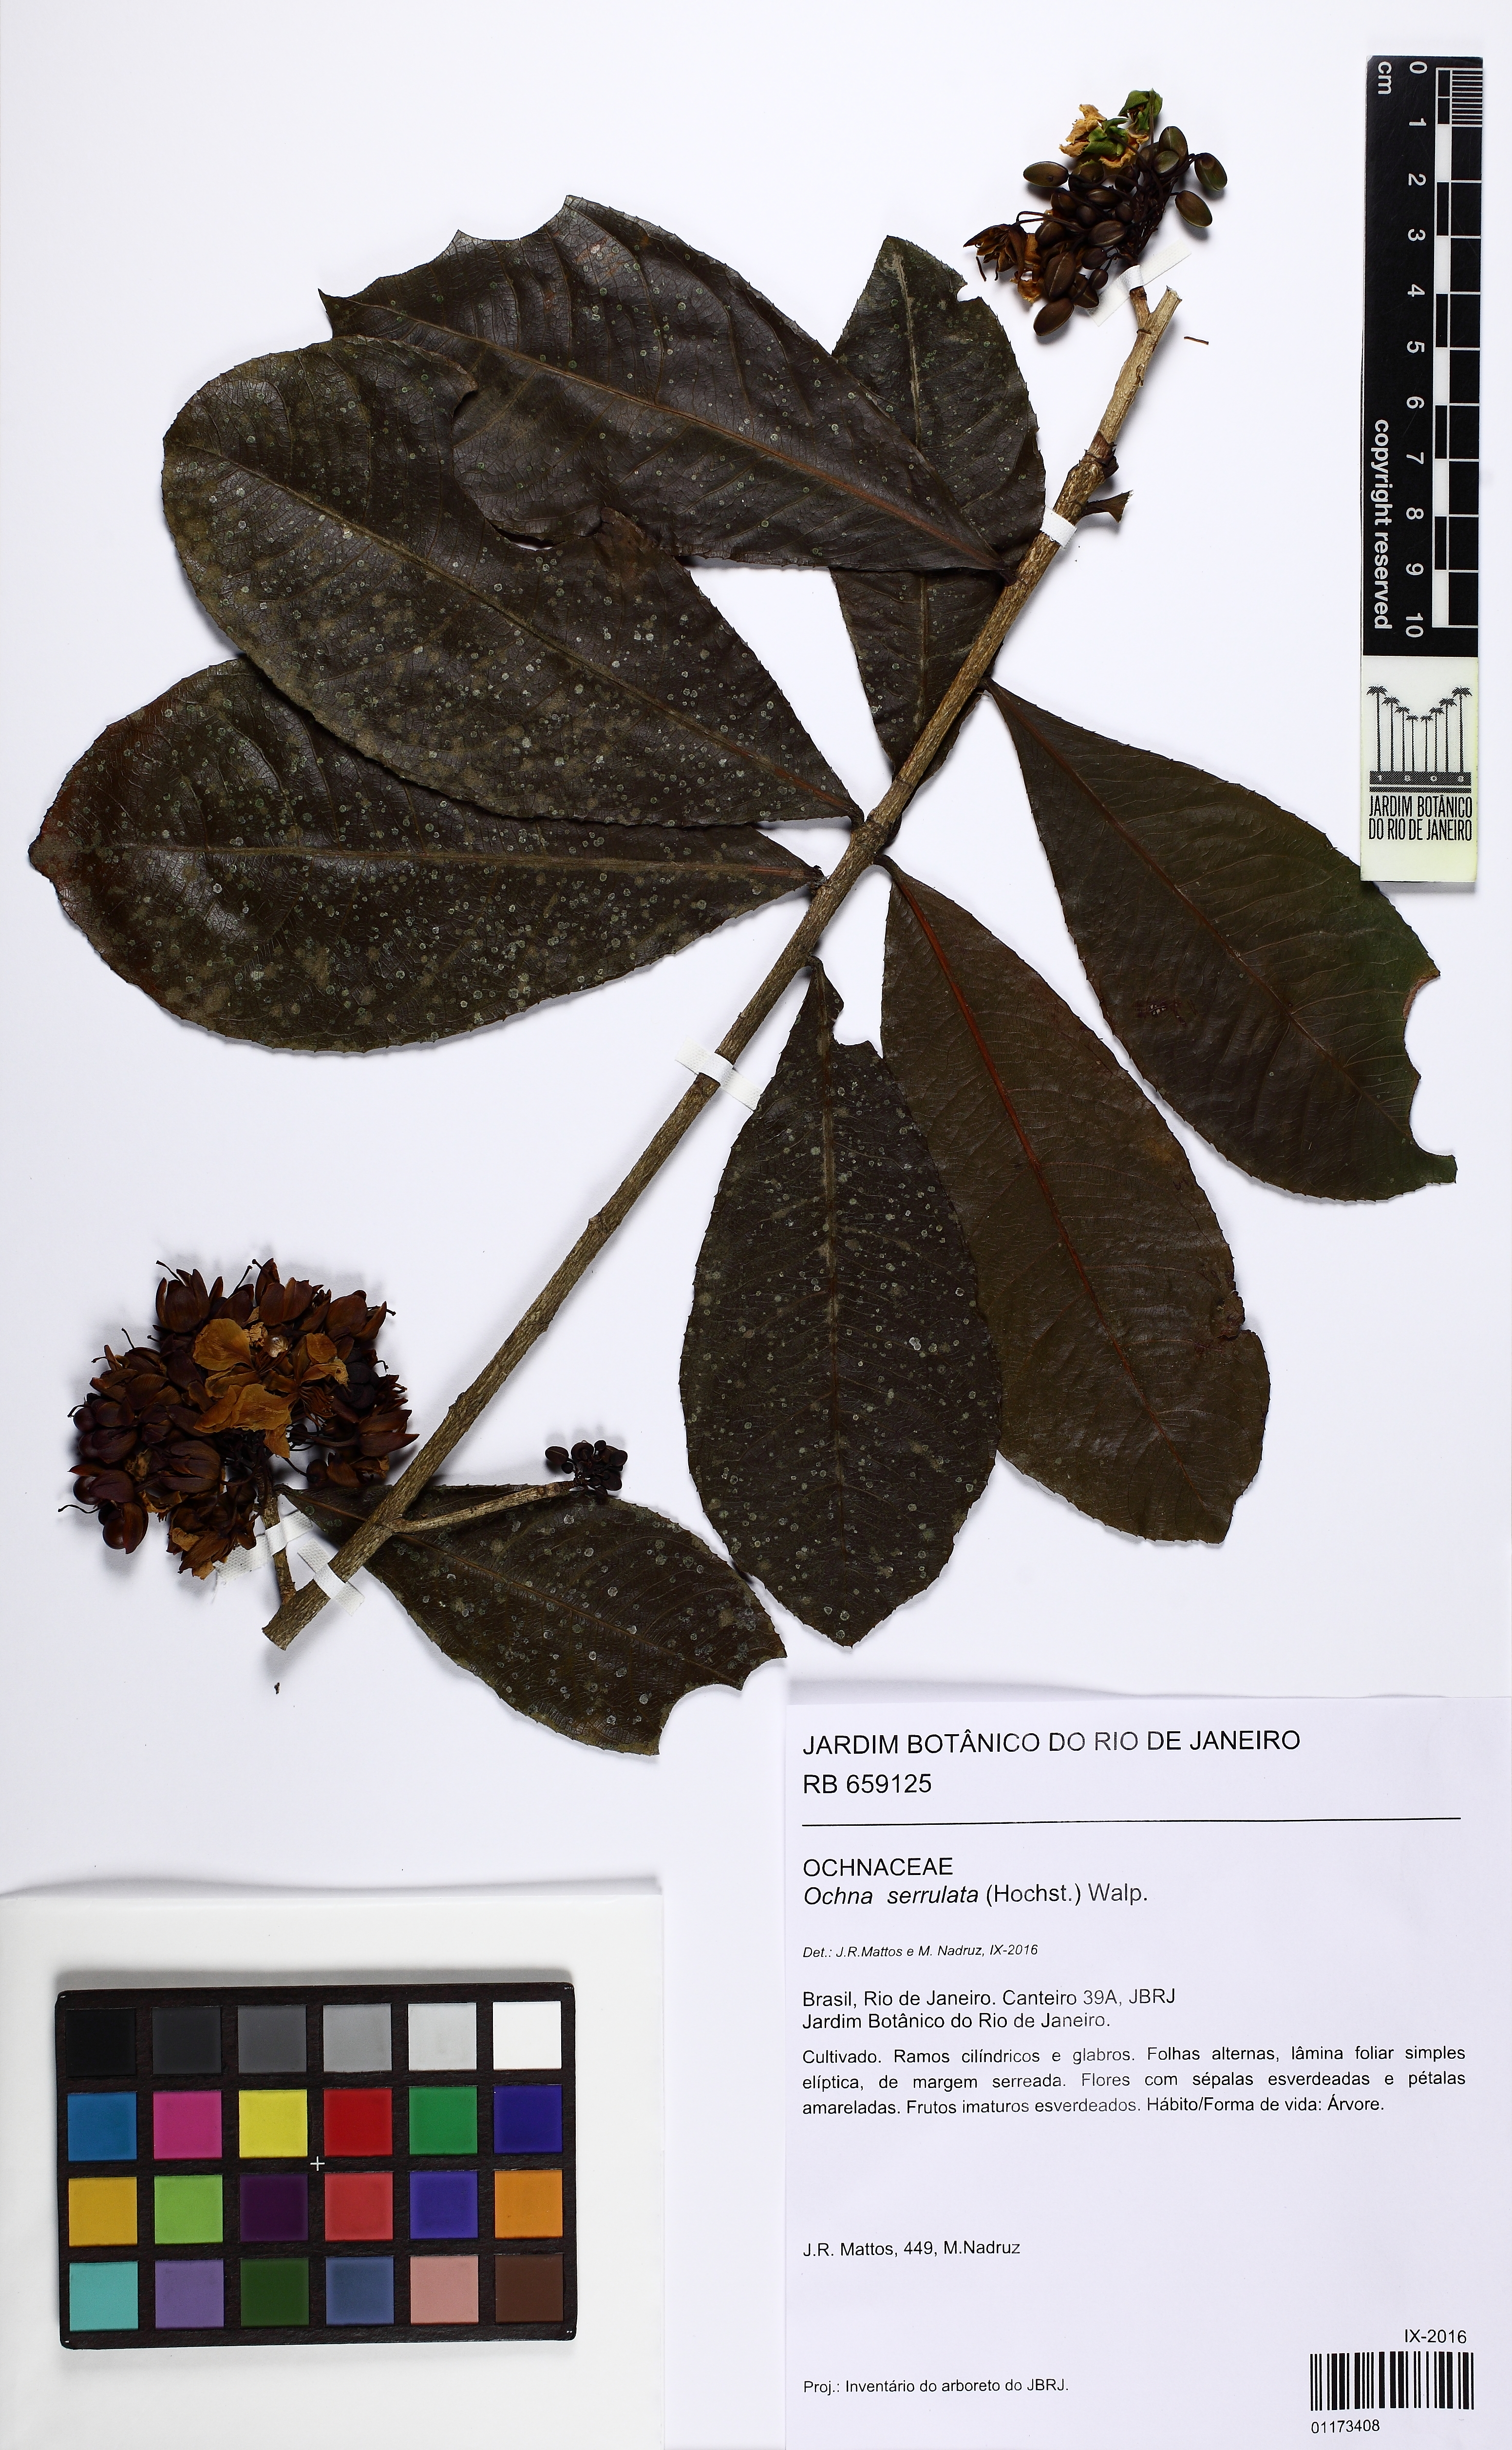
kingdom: Plantae
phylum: Tracheophyta
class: Magnoliopsida
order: Malpighiales
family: Ochnaceae
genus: Ochna
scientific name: Ochna serrulata
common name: Mickey mouse plant
